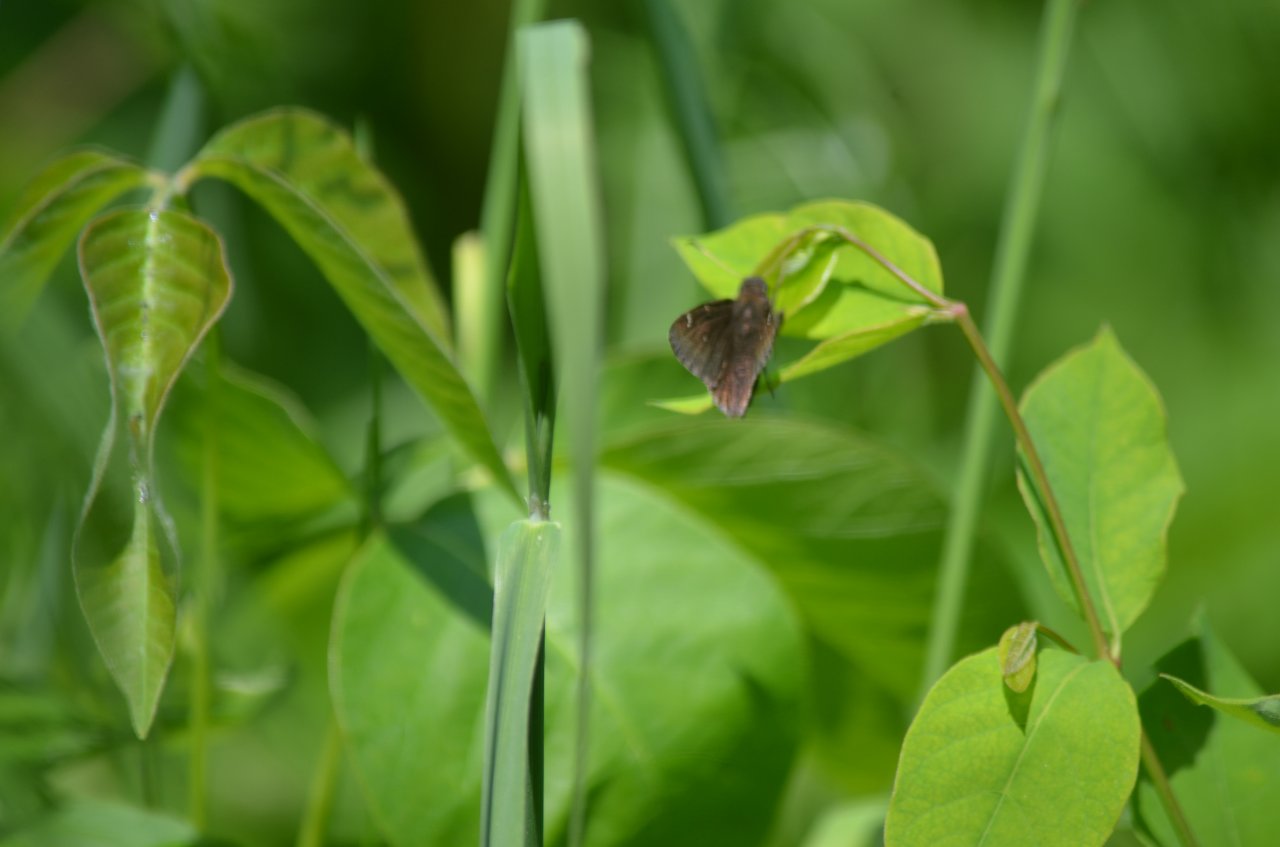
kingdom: Animalia
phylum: Arthropoda
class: Insecta
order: Lepidoptera
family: Hesperiidae
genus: Autochton
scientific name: Autochton
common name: Northern Cloudywing
